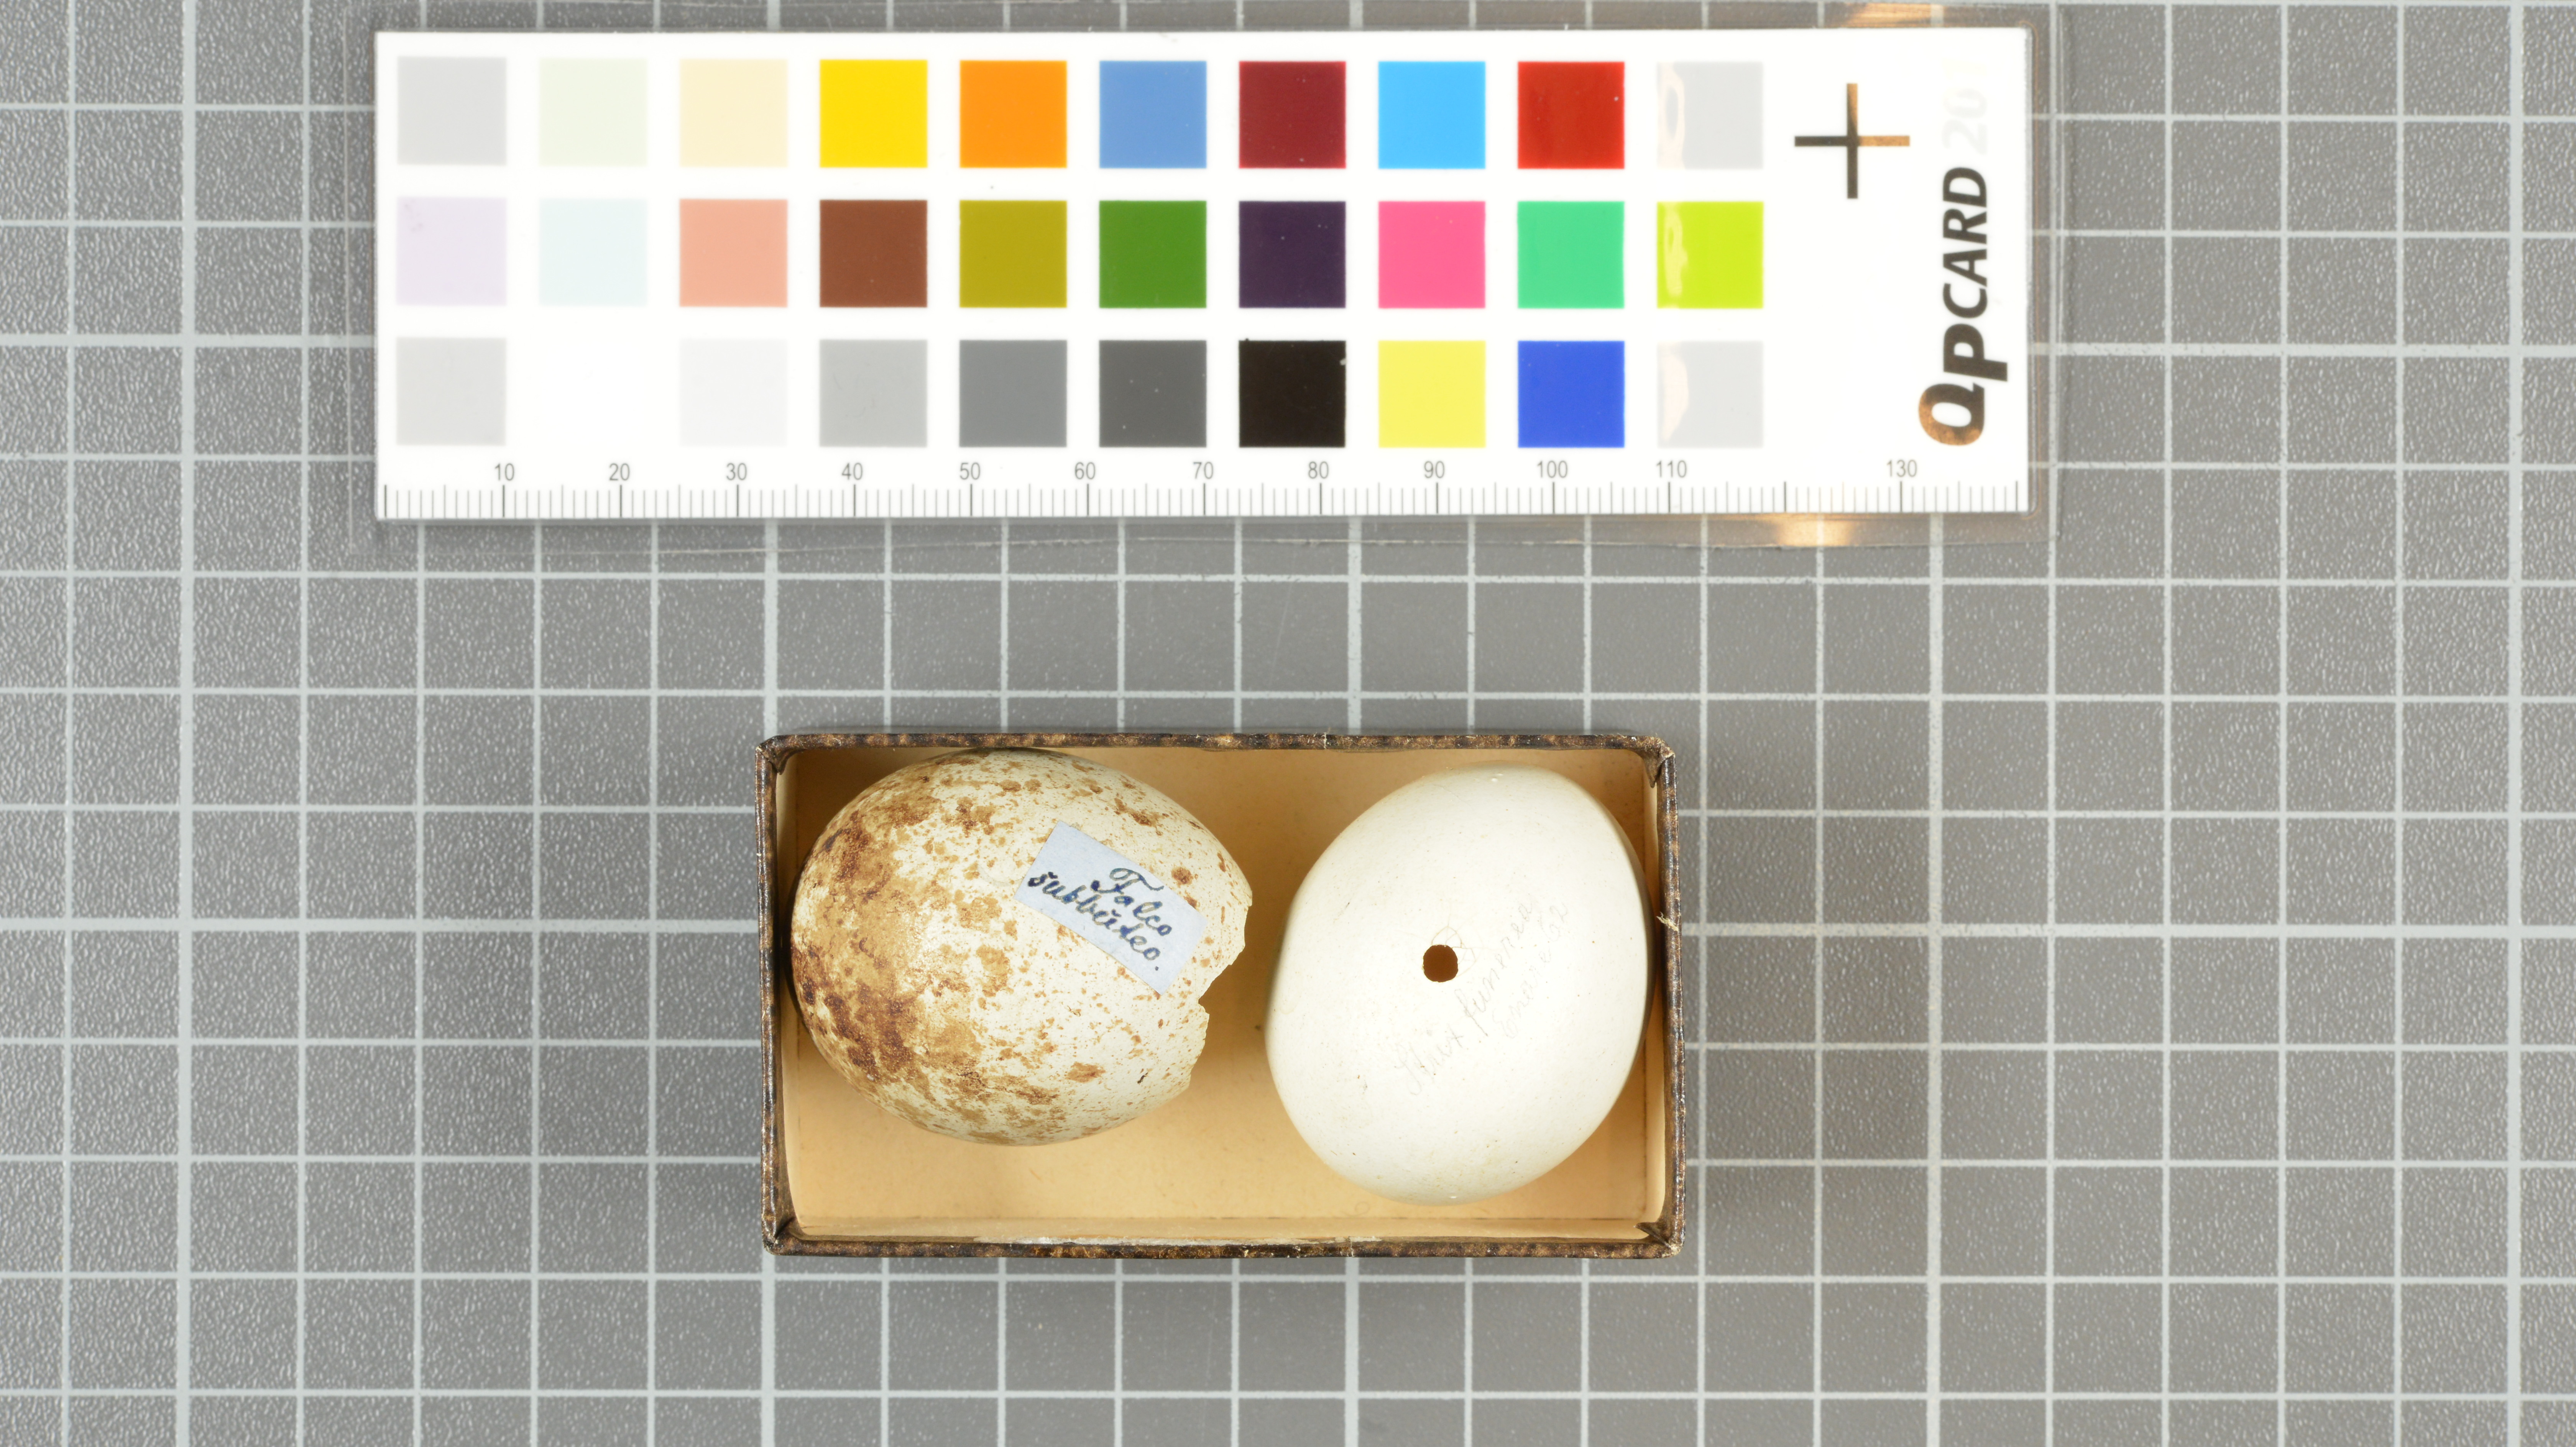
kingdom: Animalia
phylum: Chordata
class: Aves
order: Falconiformes
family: Falconidae
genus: Falco
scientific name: Falco subbuteo
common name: Eurasian hobby
